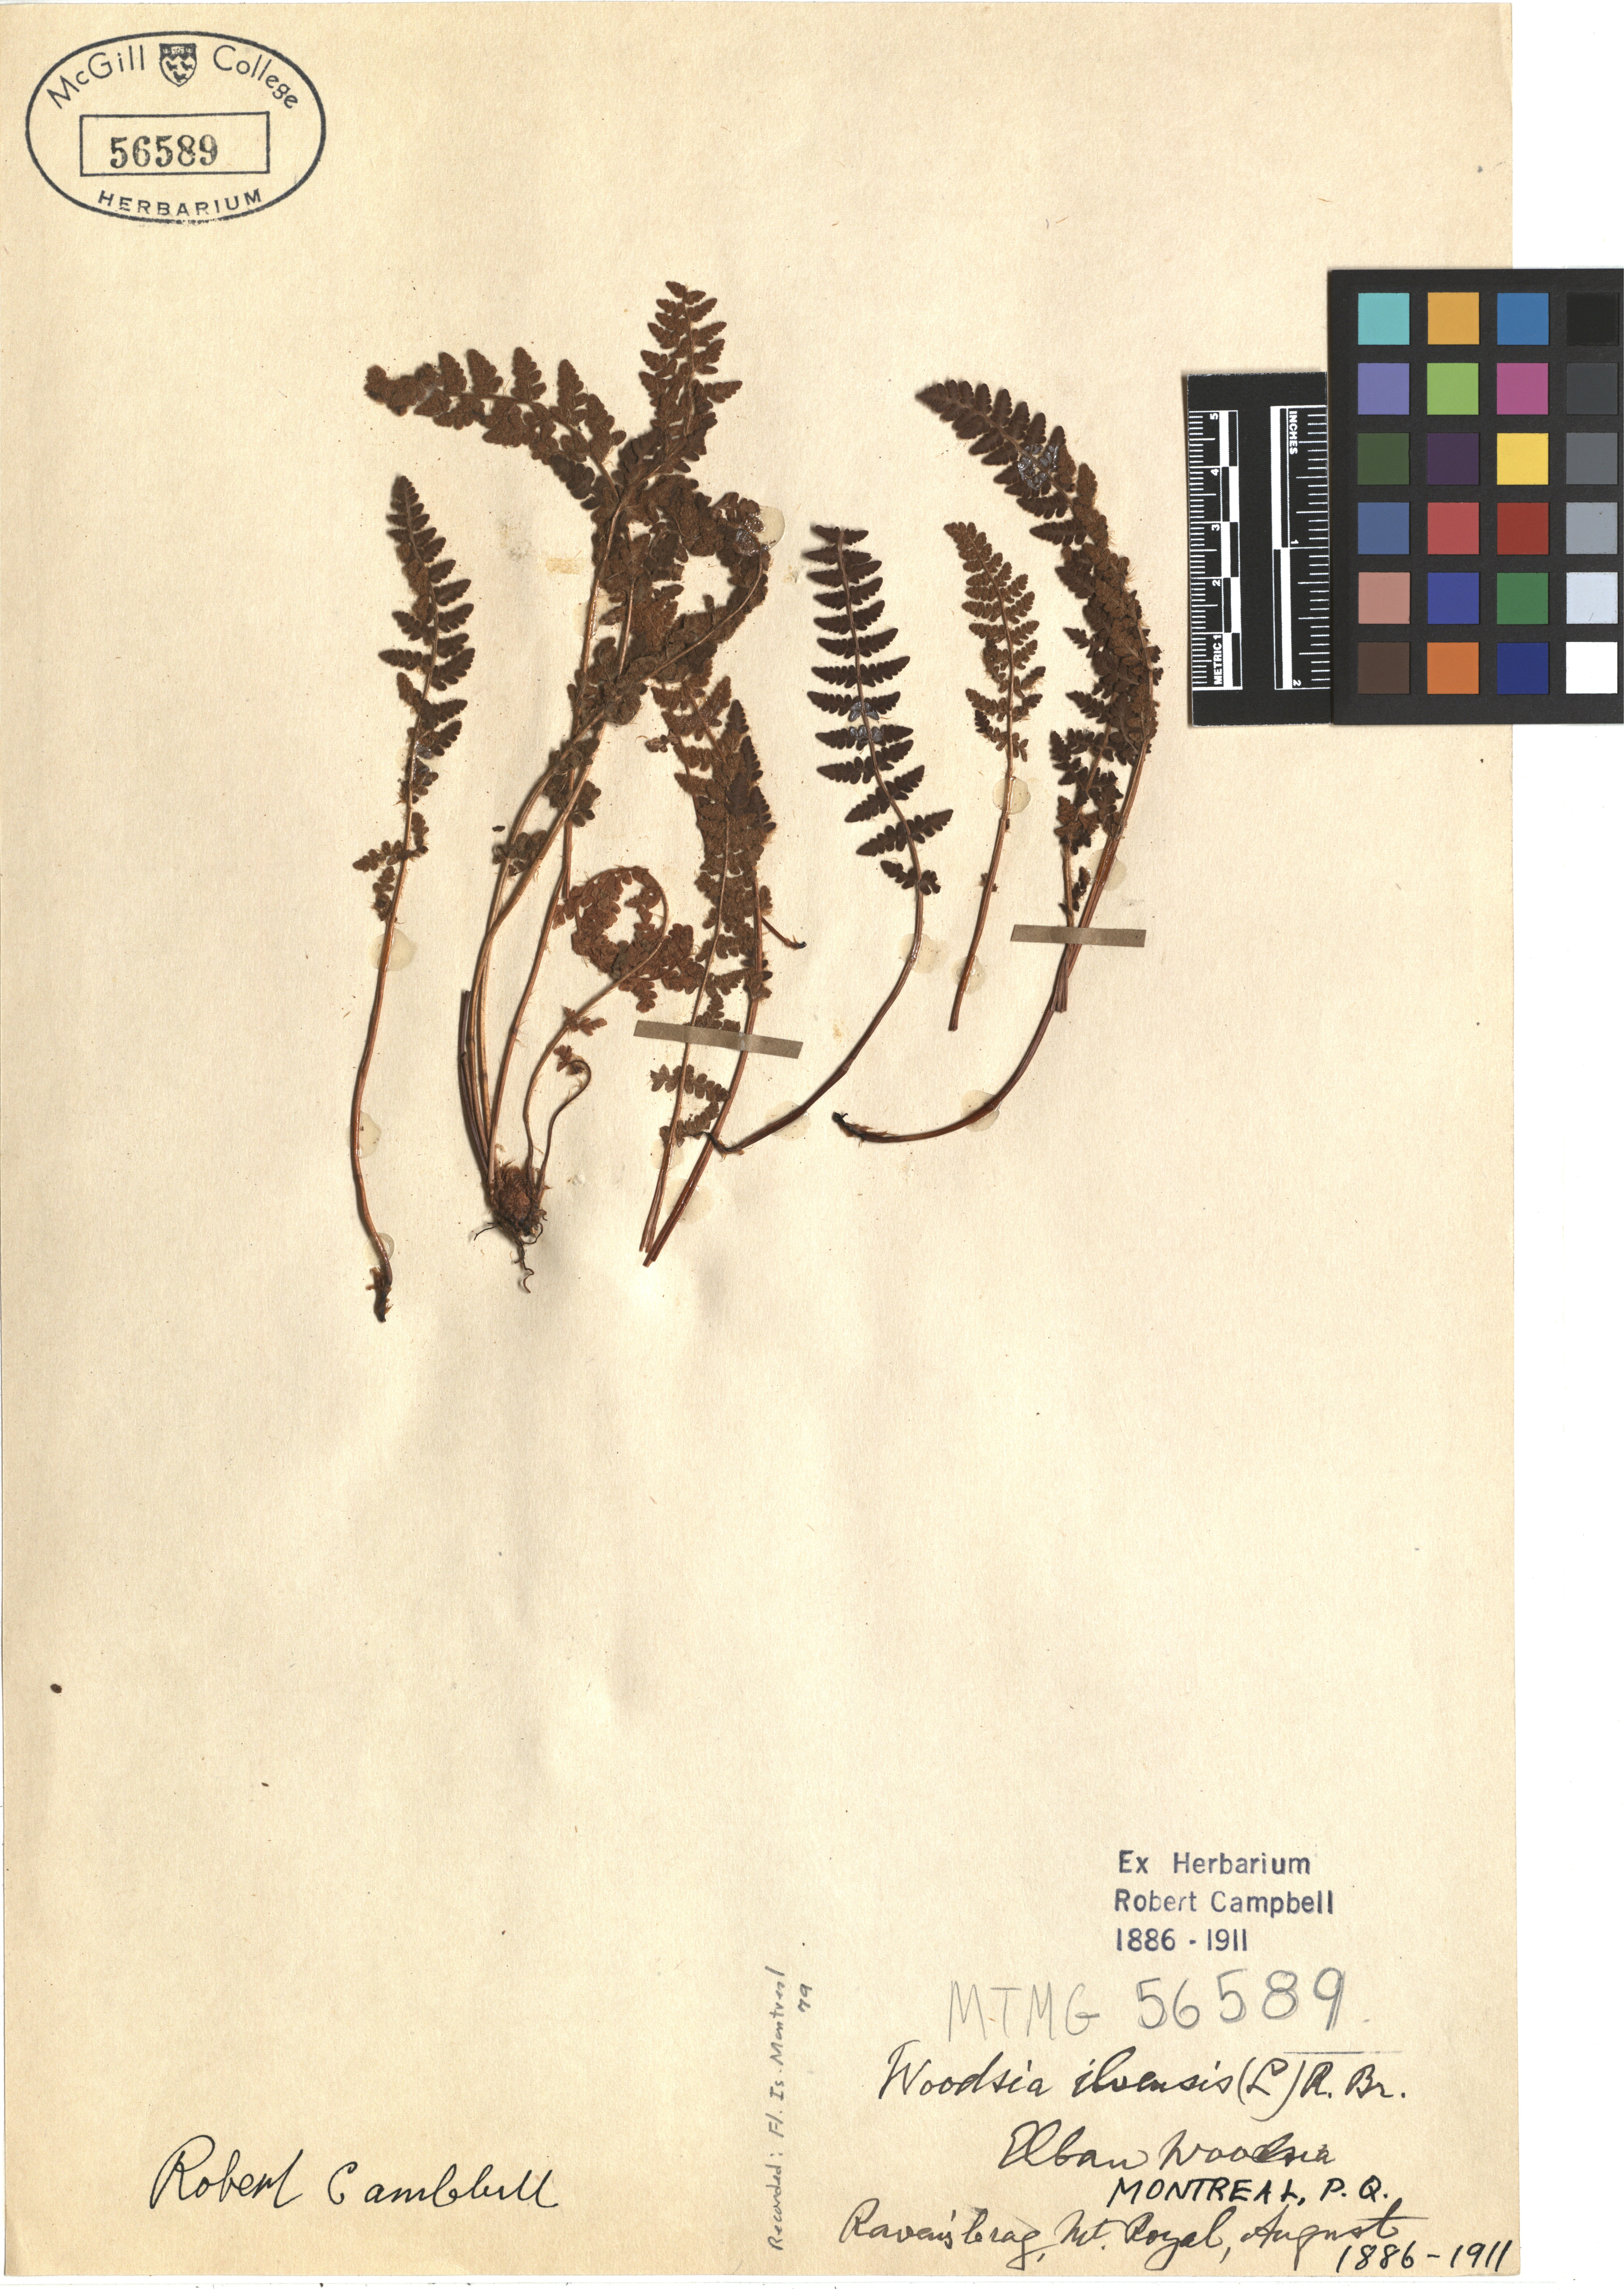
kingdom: Plantae
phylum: Tracheophyta
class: Polypodiopsida
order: Polypodiales
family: Woodsiaceae
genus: Woodsia
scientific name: Woodsia ilvensis
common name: Fragrant woodsia
